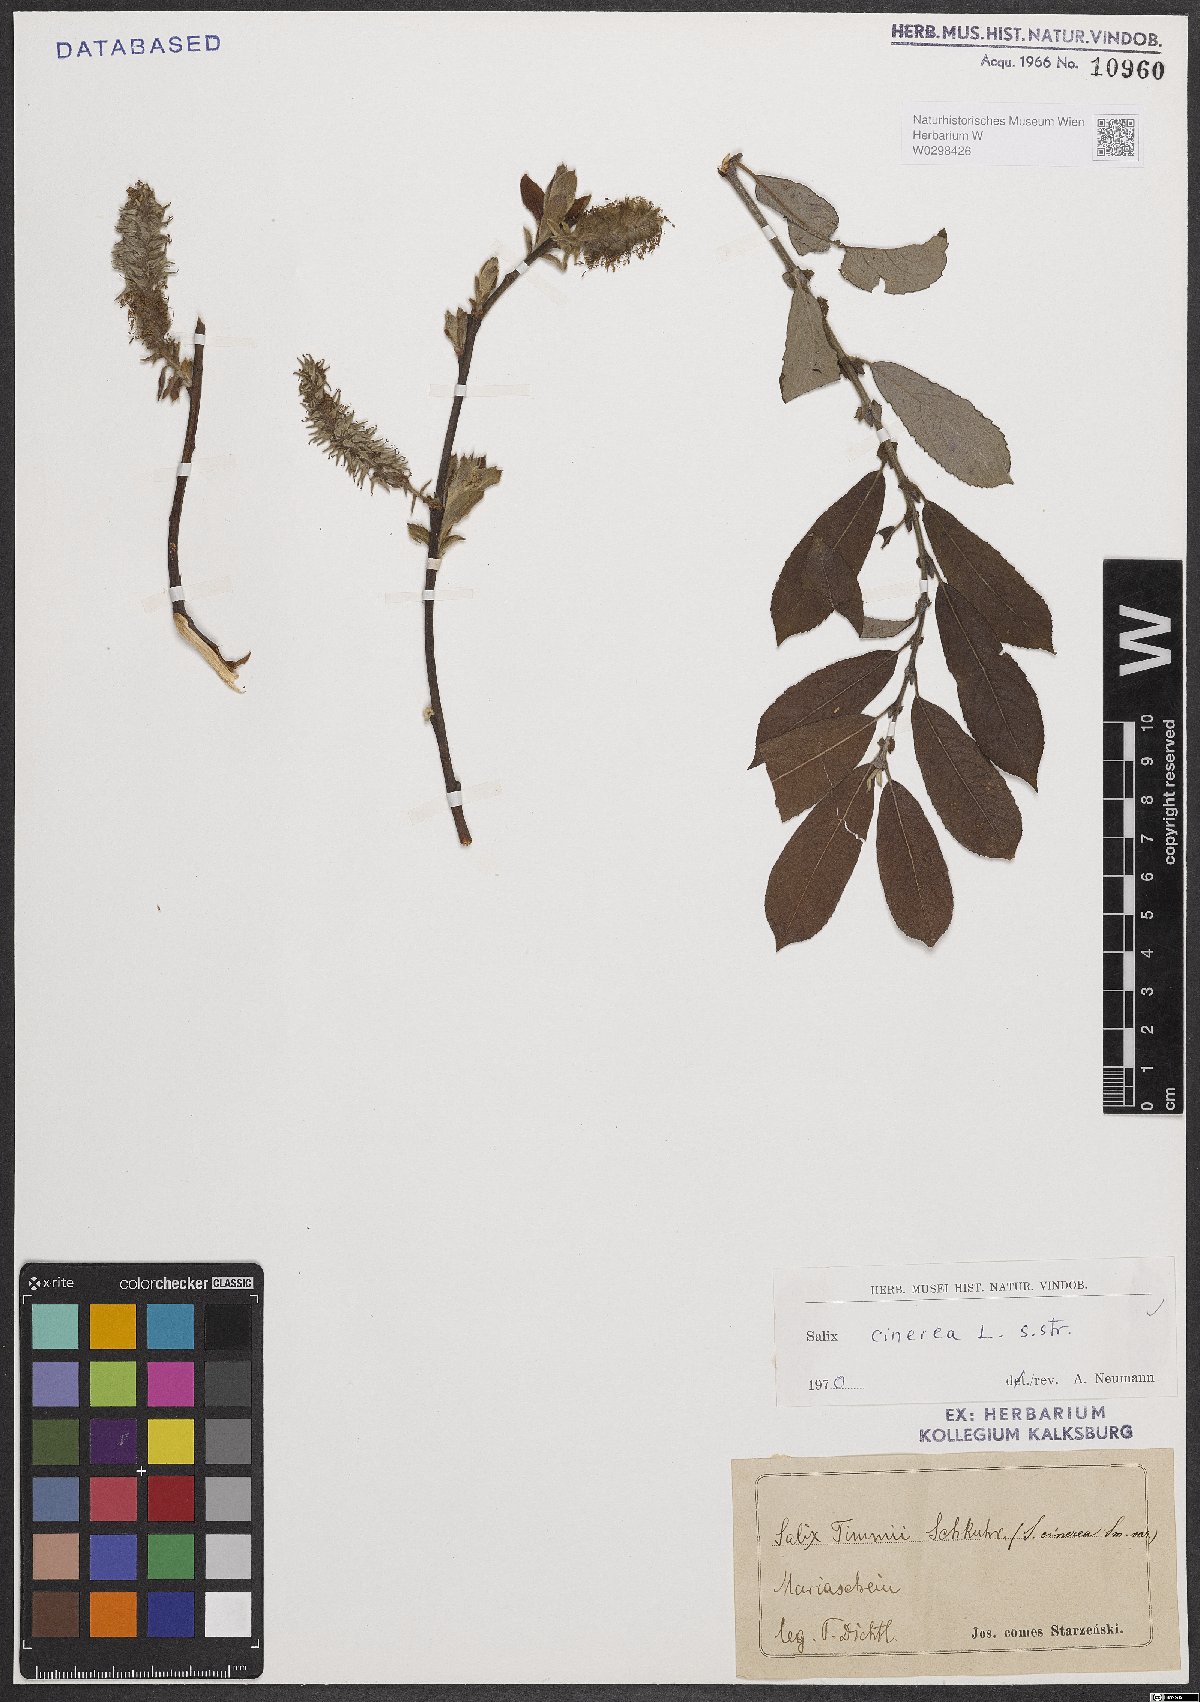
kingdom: Plantae
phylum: Tracheophyta
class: Magnoliopsida
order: Malpighiales
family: Salicaceae
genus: Salix
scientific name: Salix cinerea
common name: Common sallow
